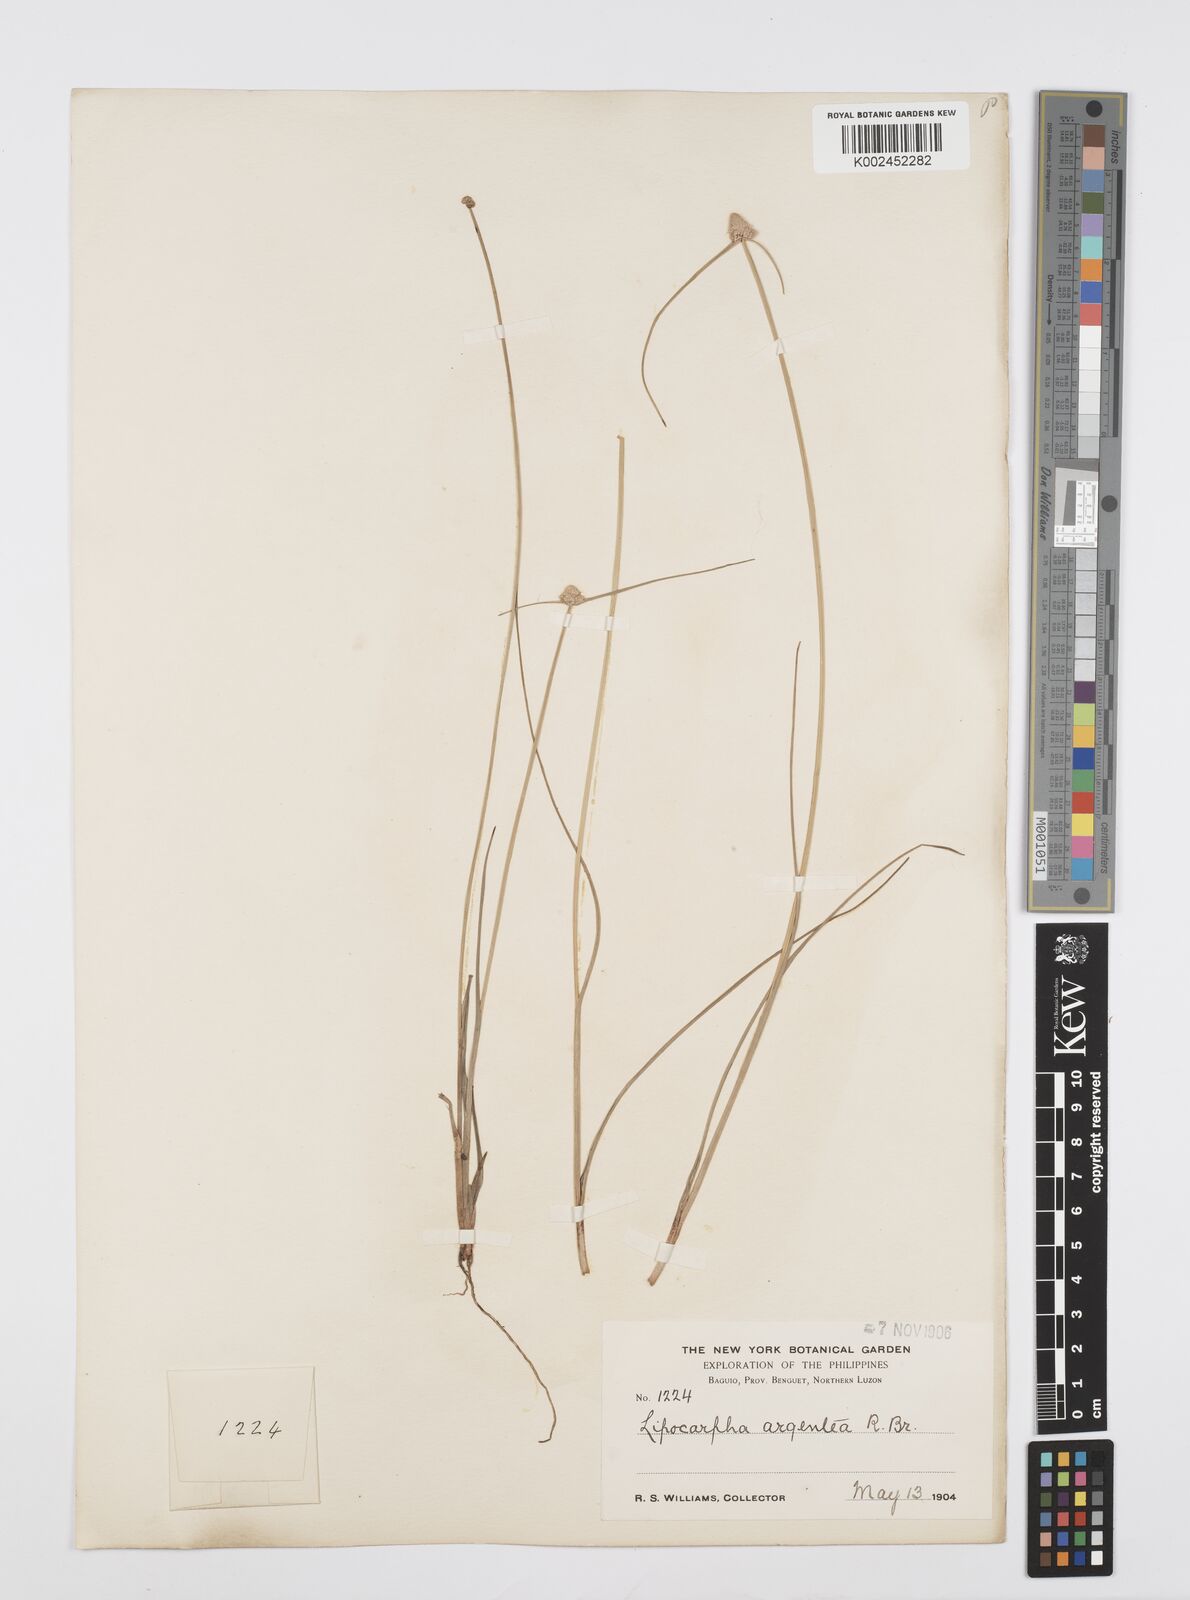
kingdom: Plantae
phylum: Tracheophyta
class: Liliopsida
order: Poales
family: Cyperaceae
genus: Cyperus
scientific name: Cyperus albescens
